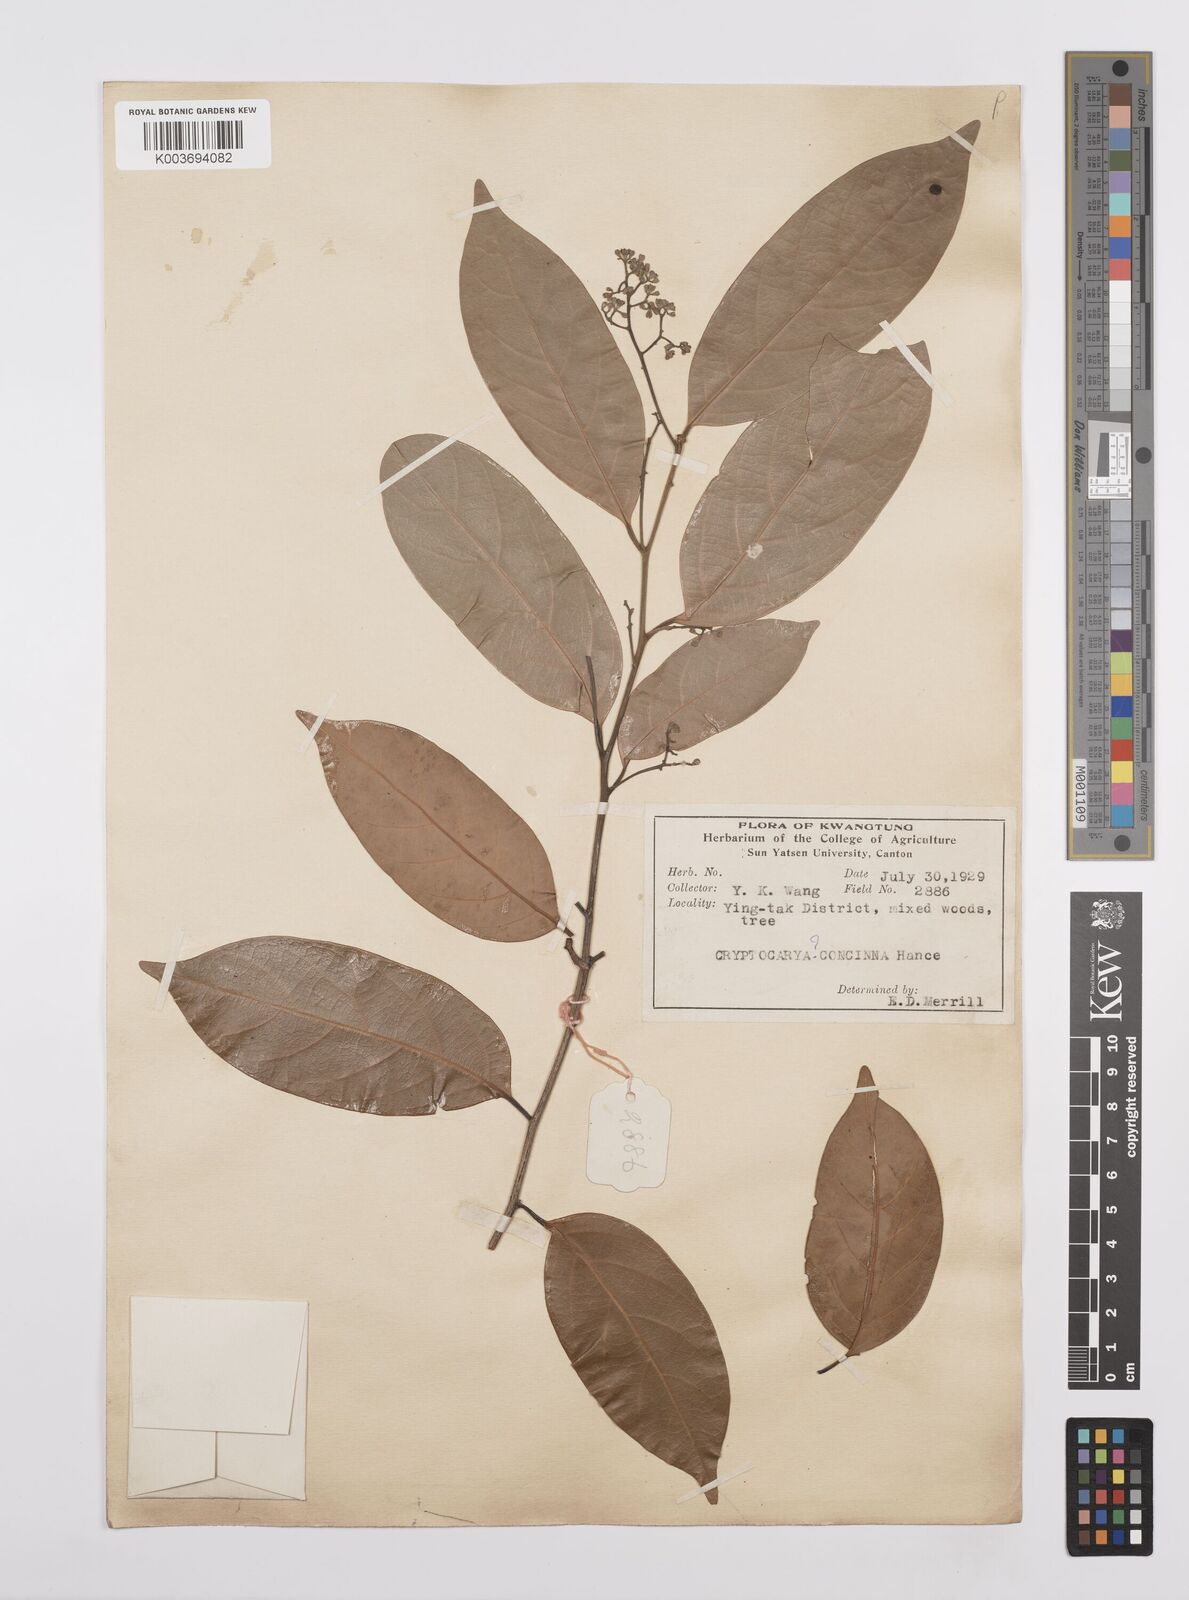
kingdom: Plantae
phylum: Tracheophyta
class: Magnoliopsida
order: Laurales
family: Lauraceae
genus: Cryptocarya
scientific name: Cryptocarya concinna
